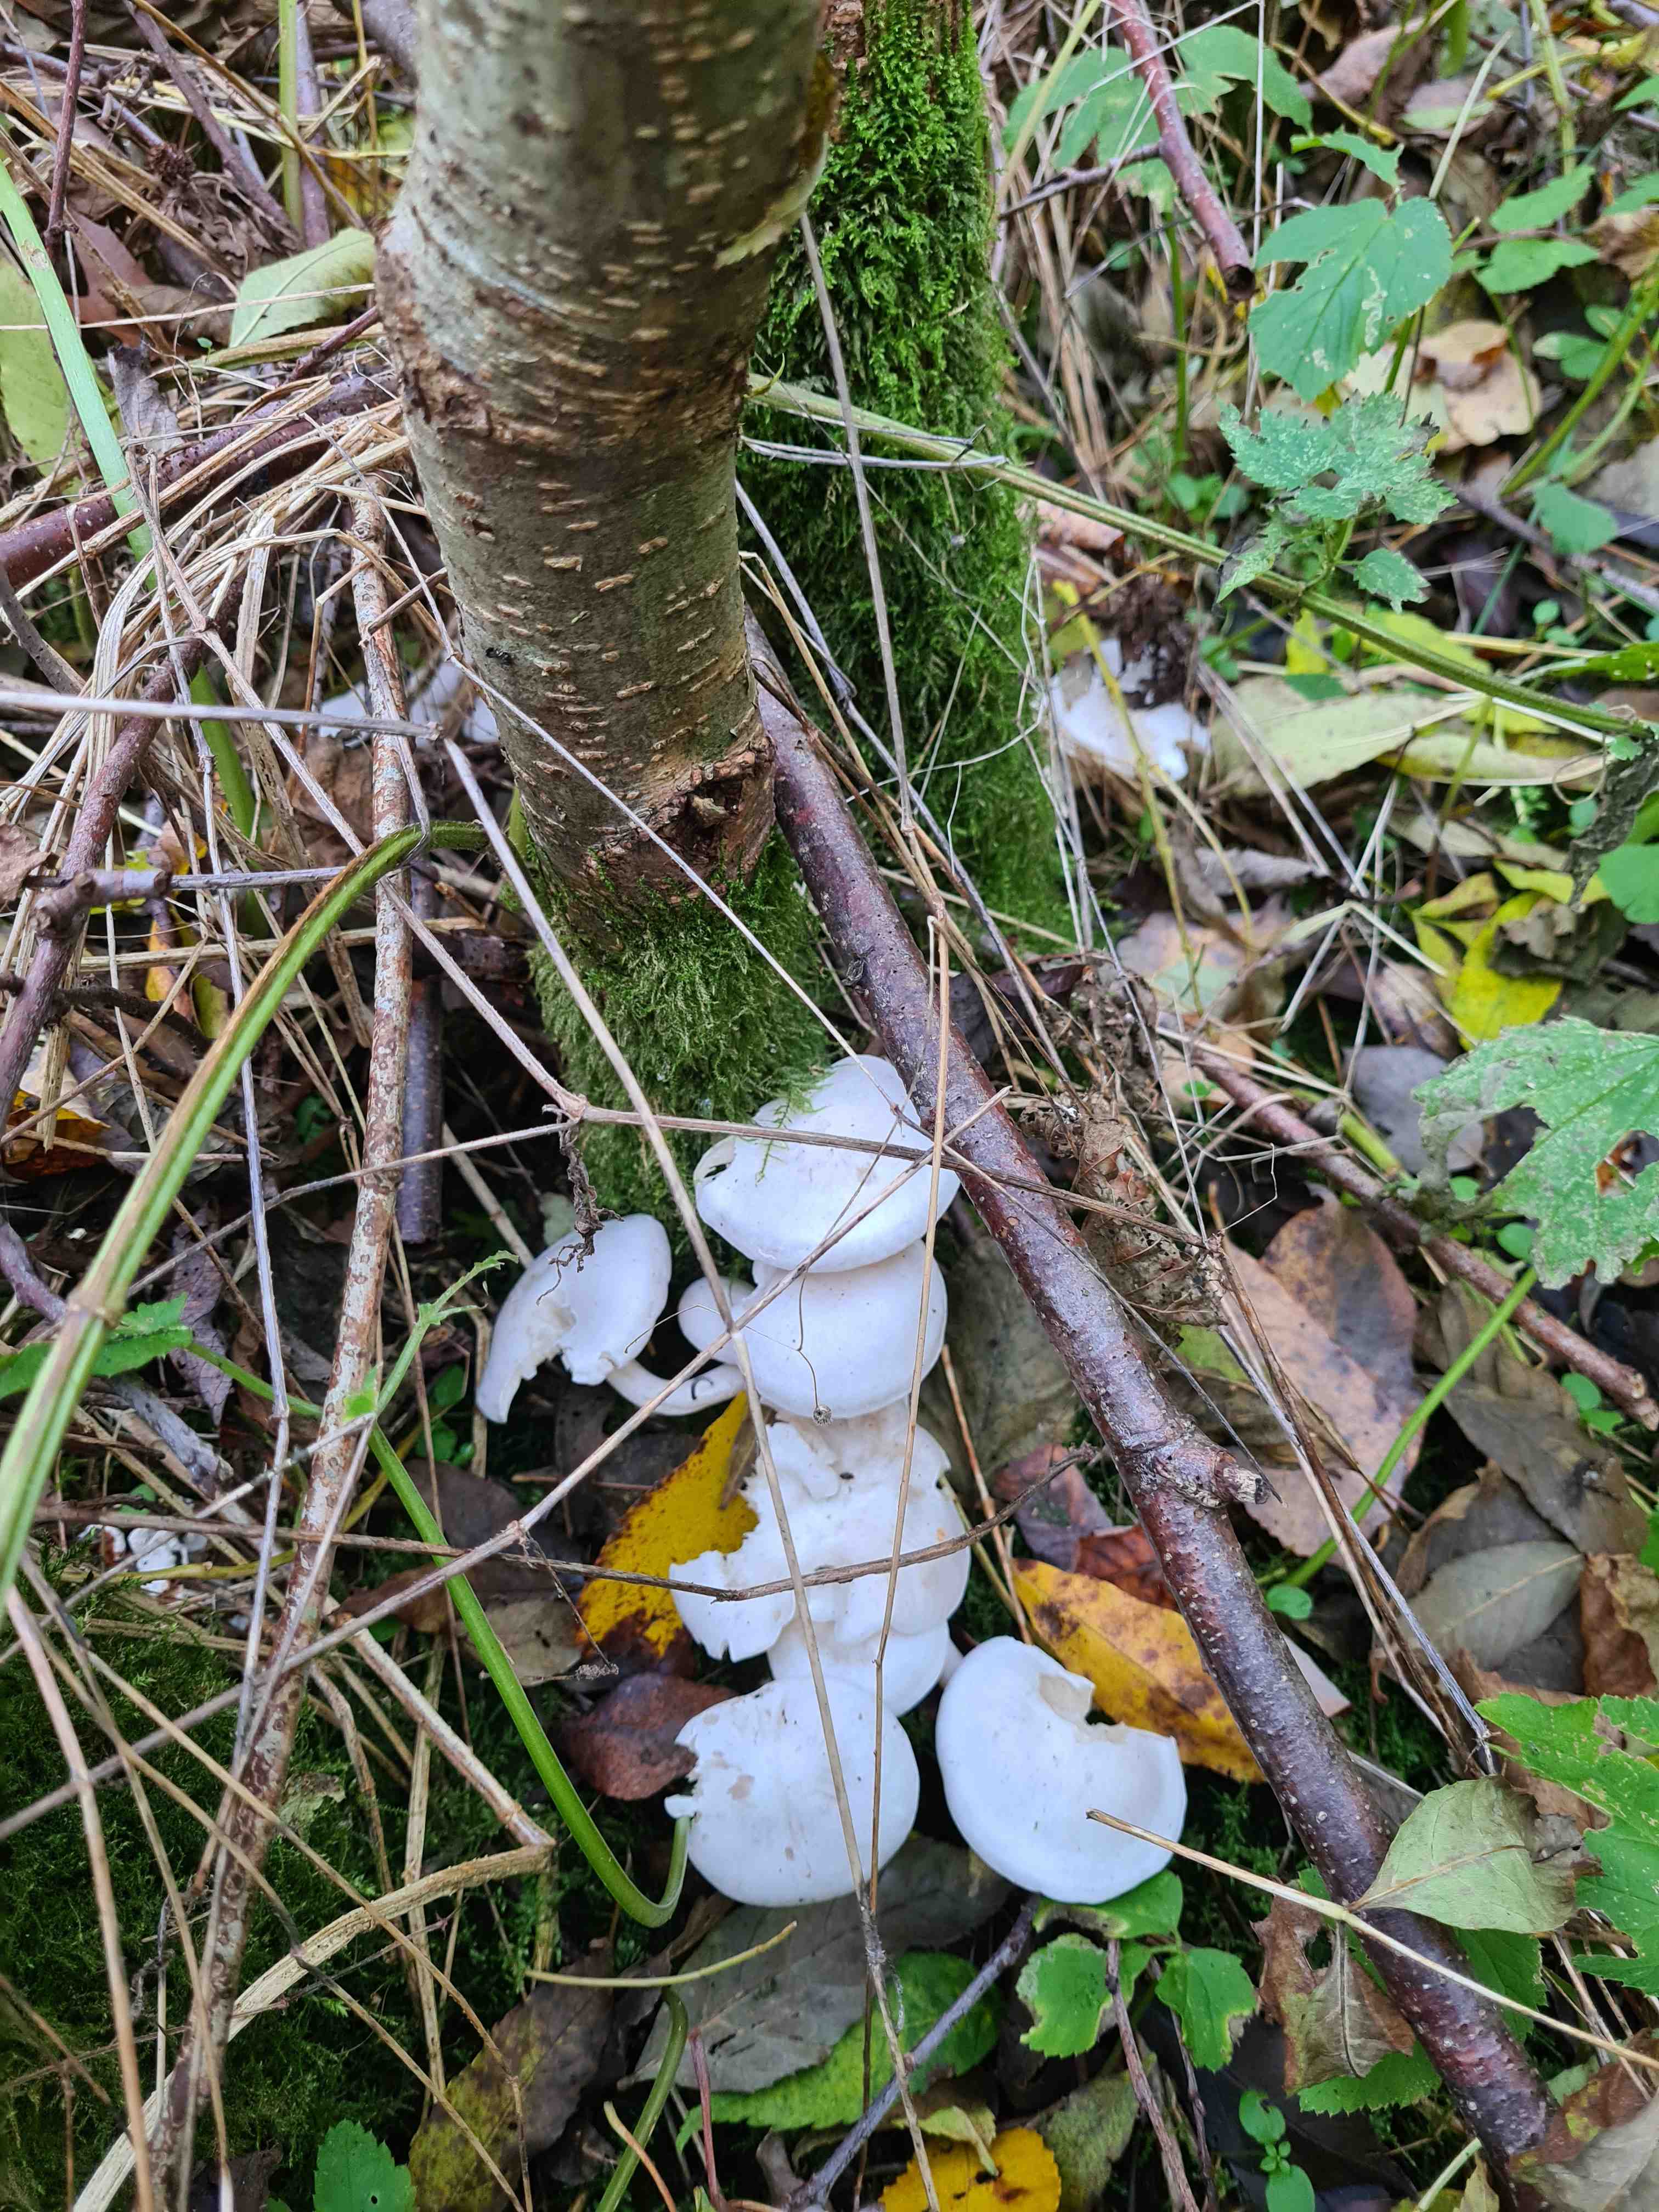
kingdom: Fungi
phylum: Basidiomycota
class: Agaricomycetes
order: Agaricales
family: Tricholomataceae
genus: Leucocybe
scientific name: Leucocybe connata
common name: knippe-tragthat
